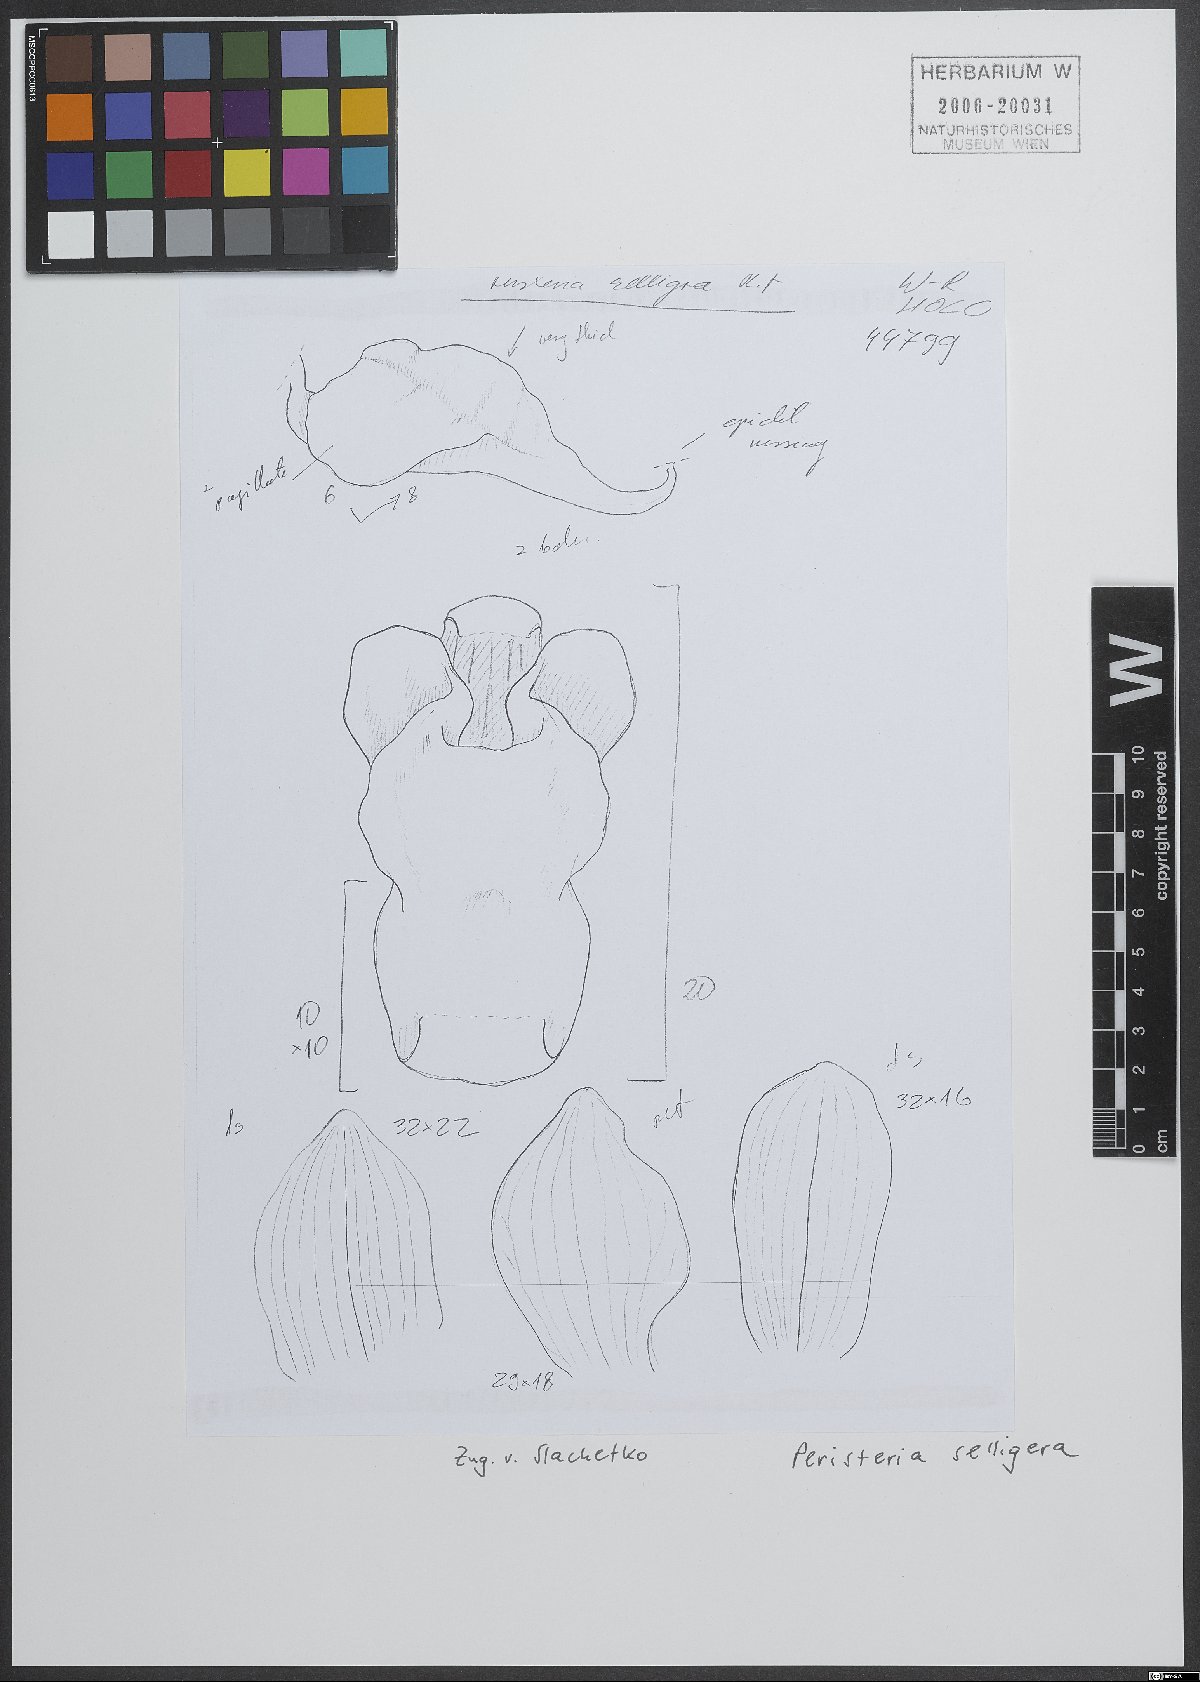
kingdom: Plantae
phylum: Tracheophyta
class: Liliopsida
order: Asparagales
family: Orchidaceae
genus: Peristeria
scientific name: Peristeria selligera
